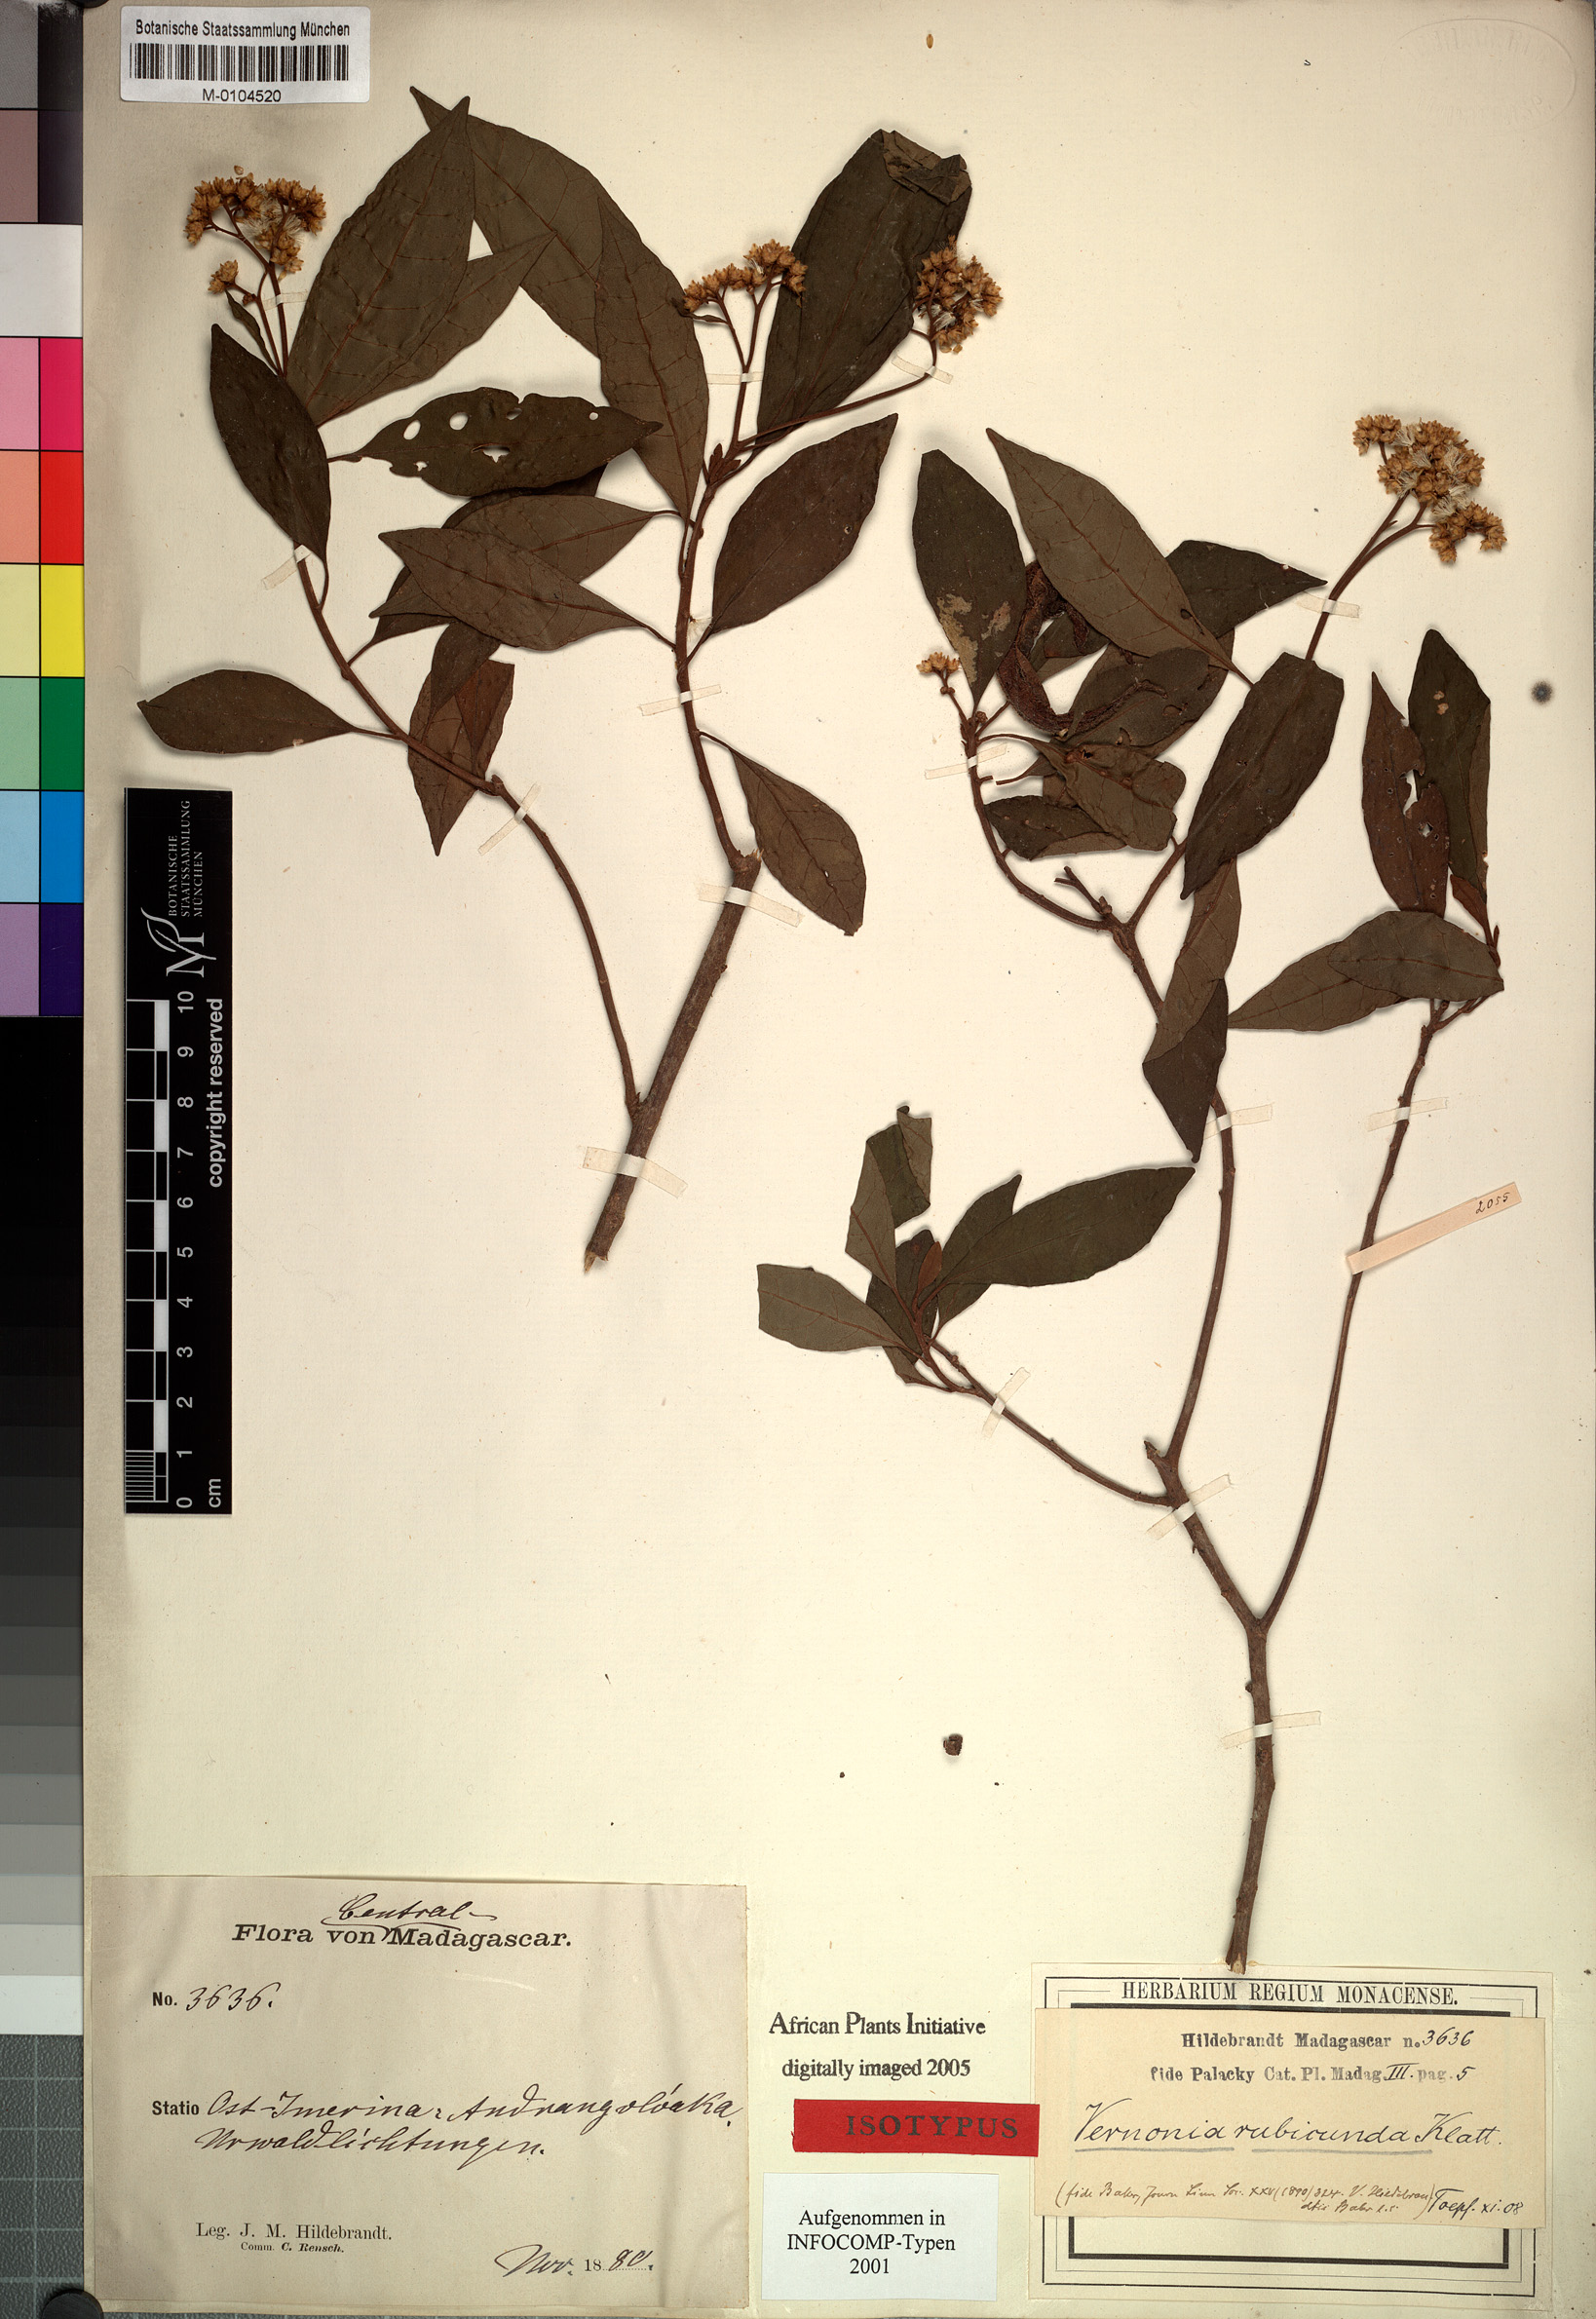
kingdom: Plantae
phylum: Tracheophyta
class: Magnoliopsida
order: Asterales
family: Asteraceae
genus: Jeffreycia
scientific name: Jeffreycia hildebrandtii
